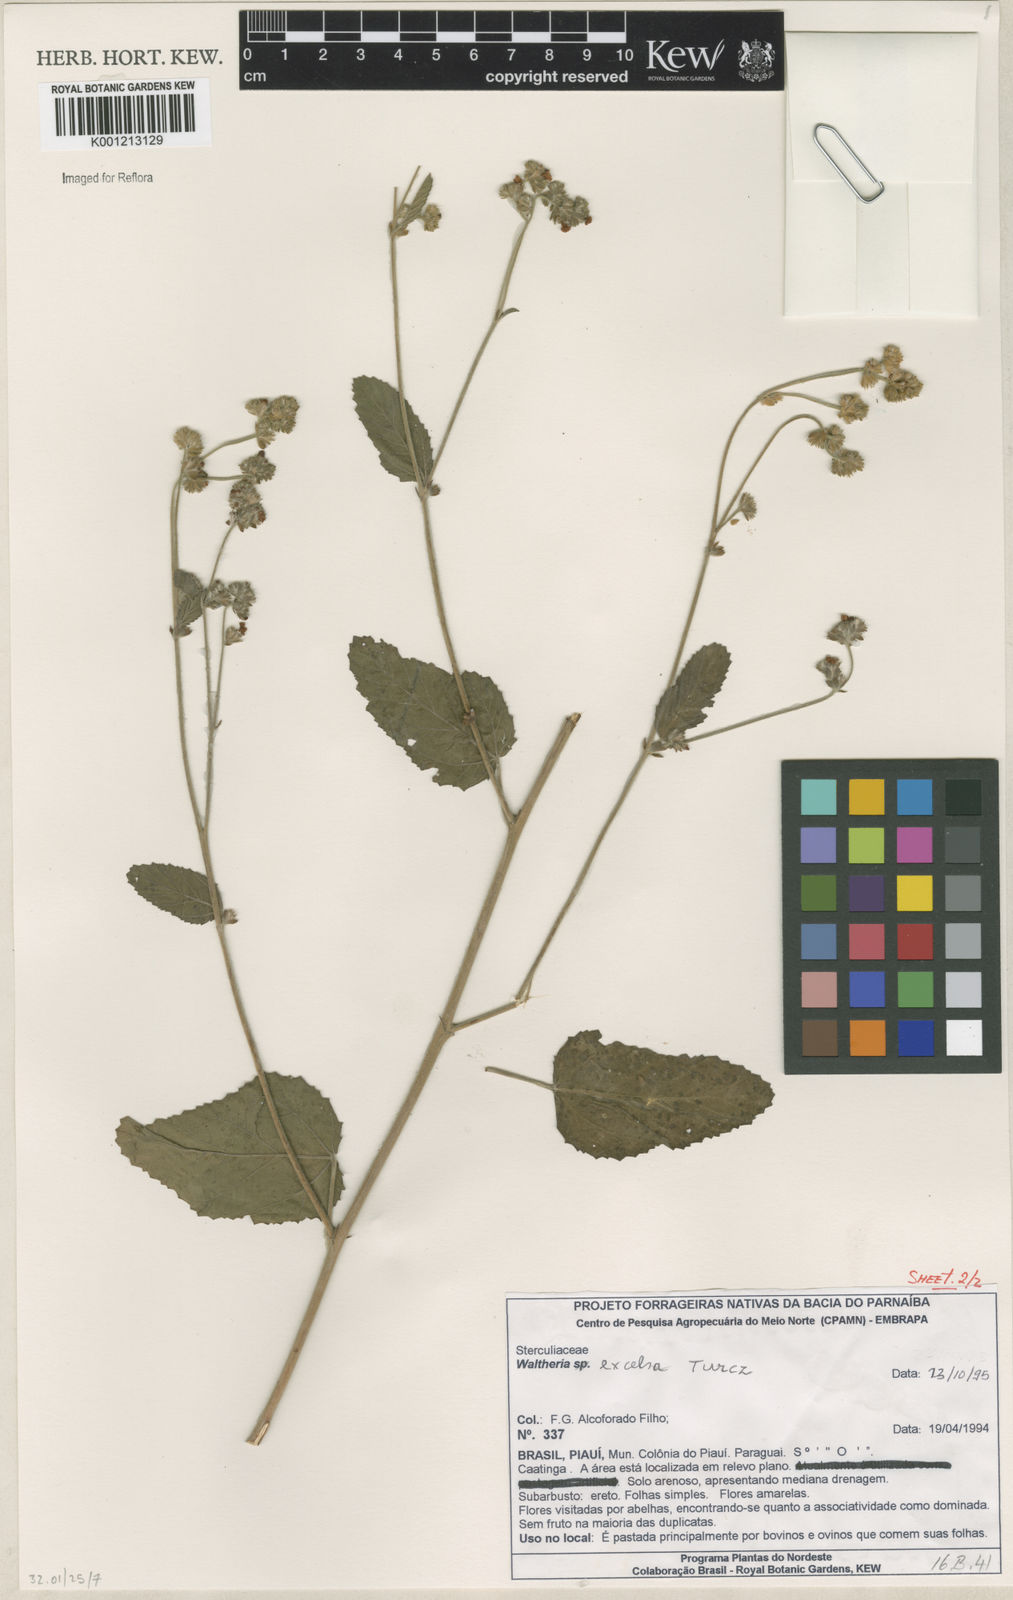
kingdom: Plantae
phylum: Tracheophyta
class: Magnoliopsida
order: Malvales
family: Malvaceae
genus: Waltheria
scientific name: Waltheria excelsa
